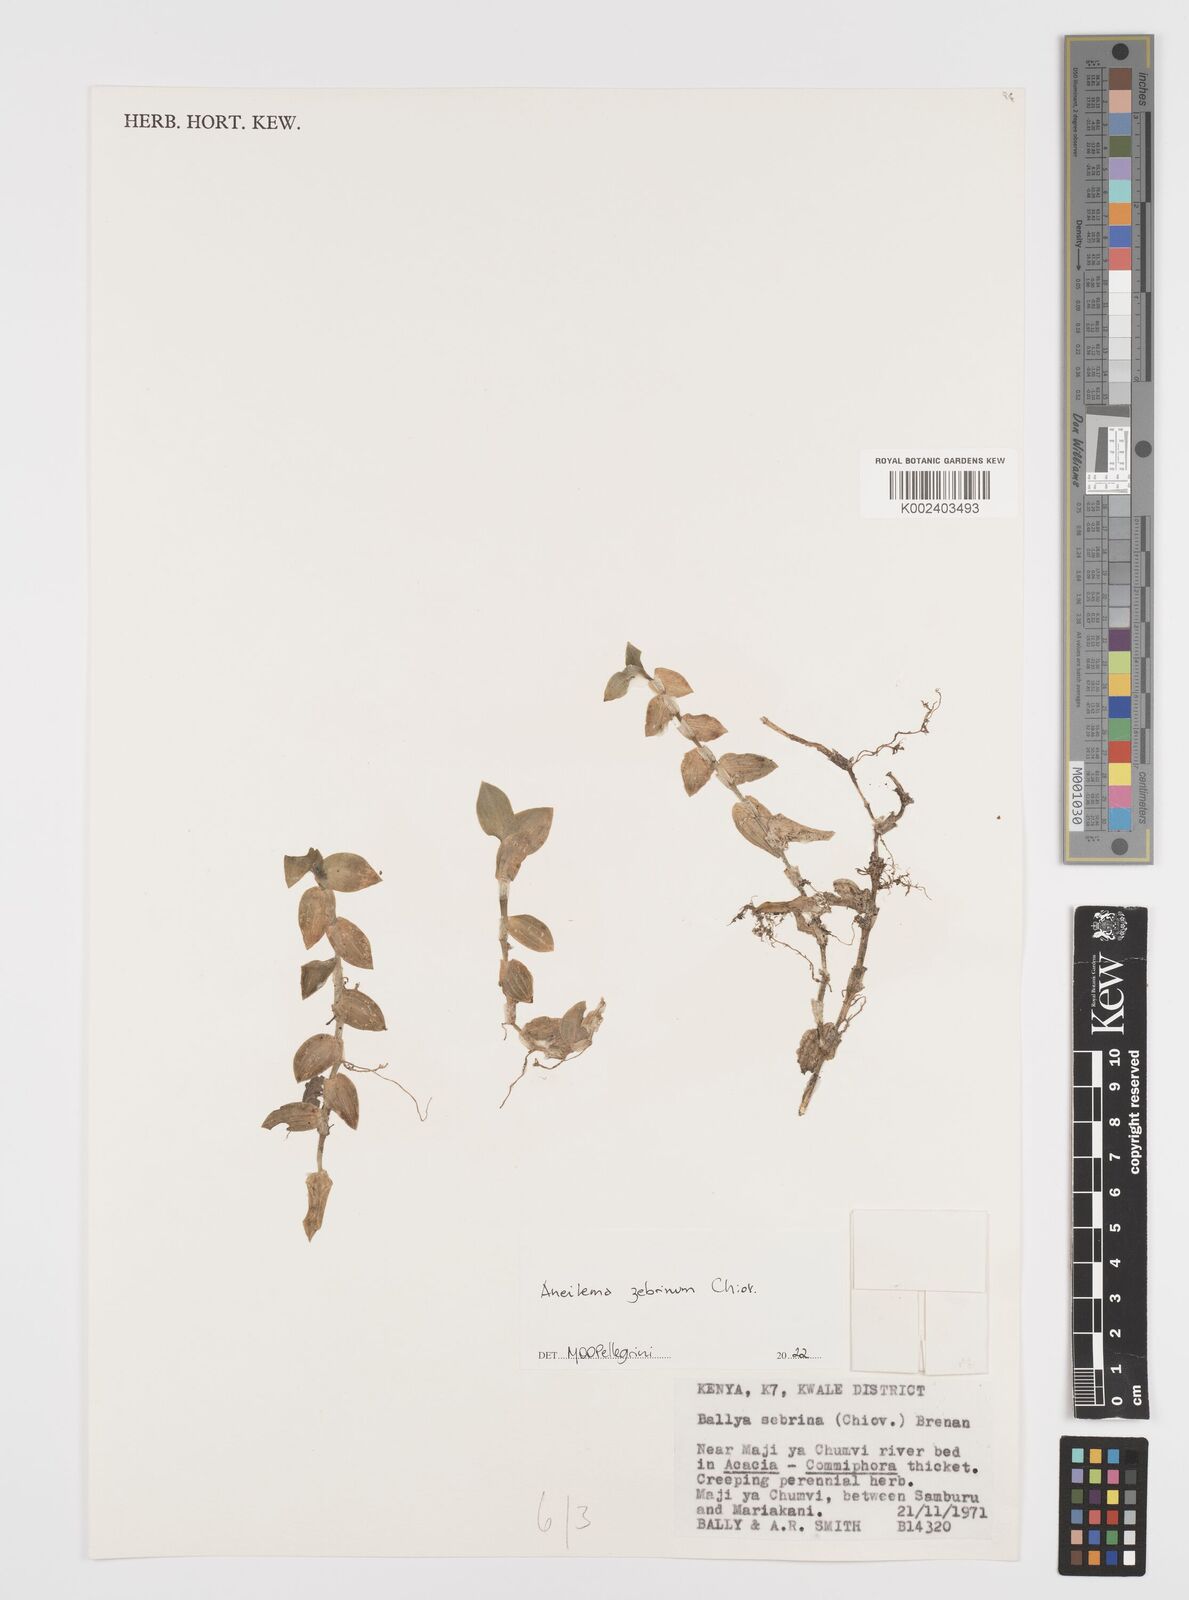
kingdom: Plantae
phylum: Tracheophyta
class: Liliopsida
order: Commelinales
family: Commelinaceae
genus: Aneilema
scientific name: Aneilema zebrinum
